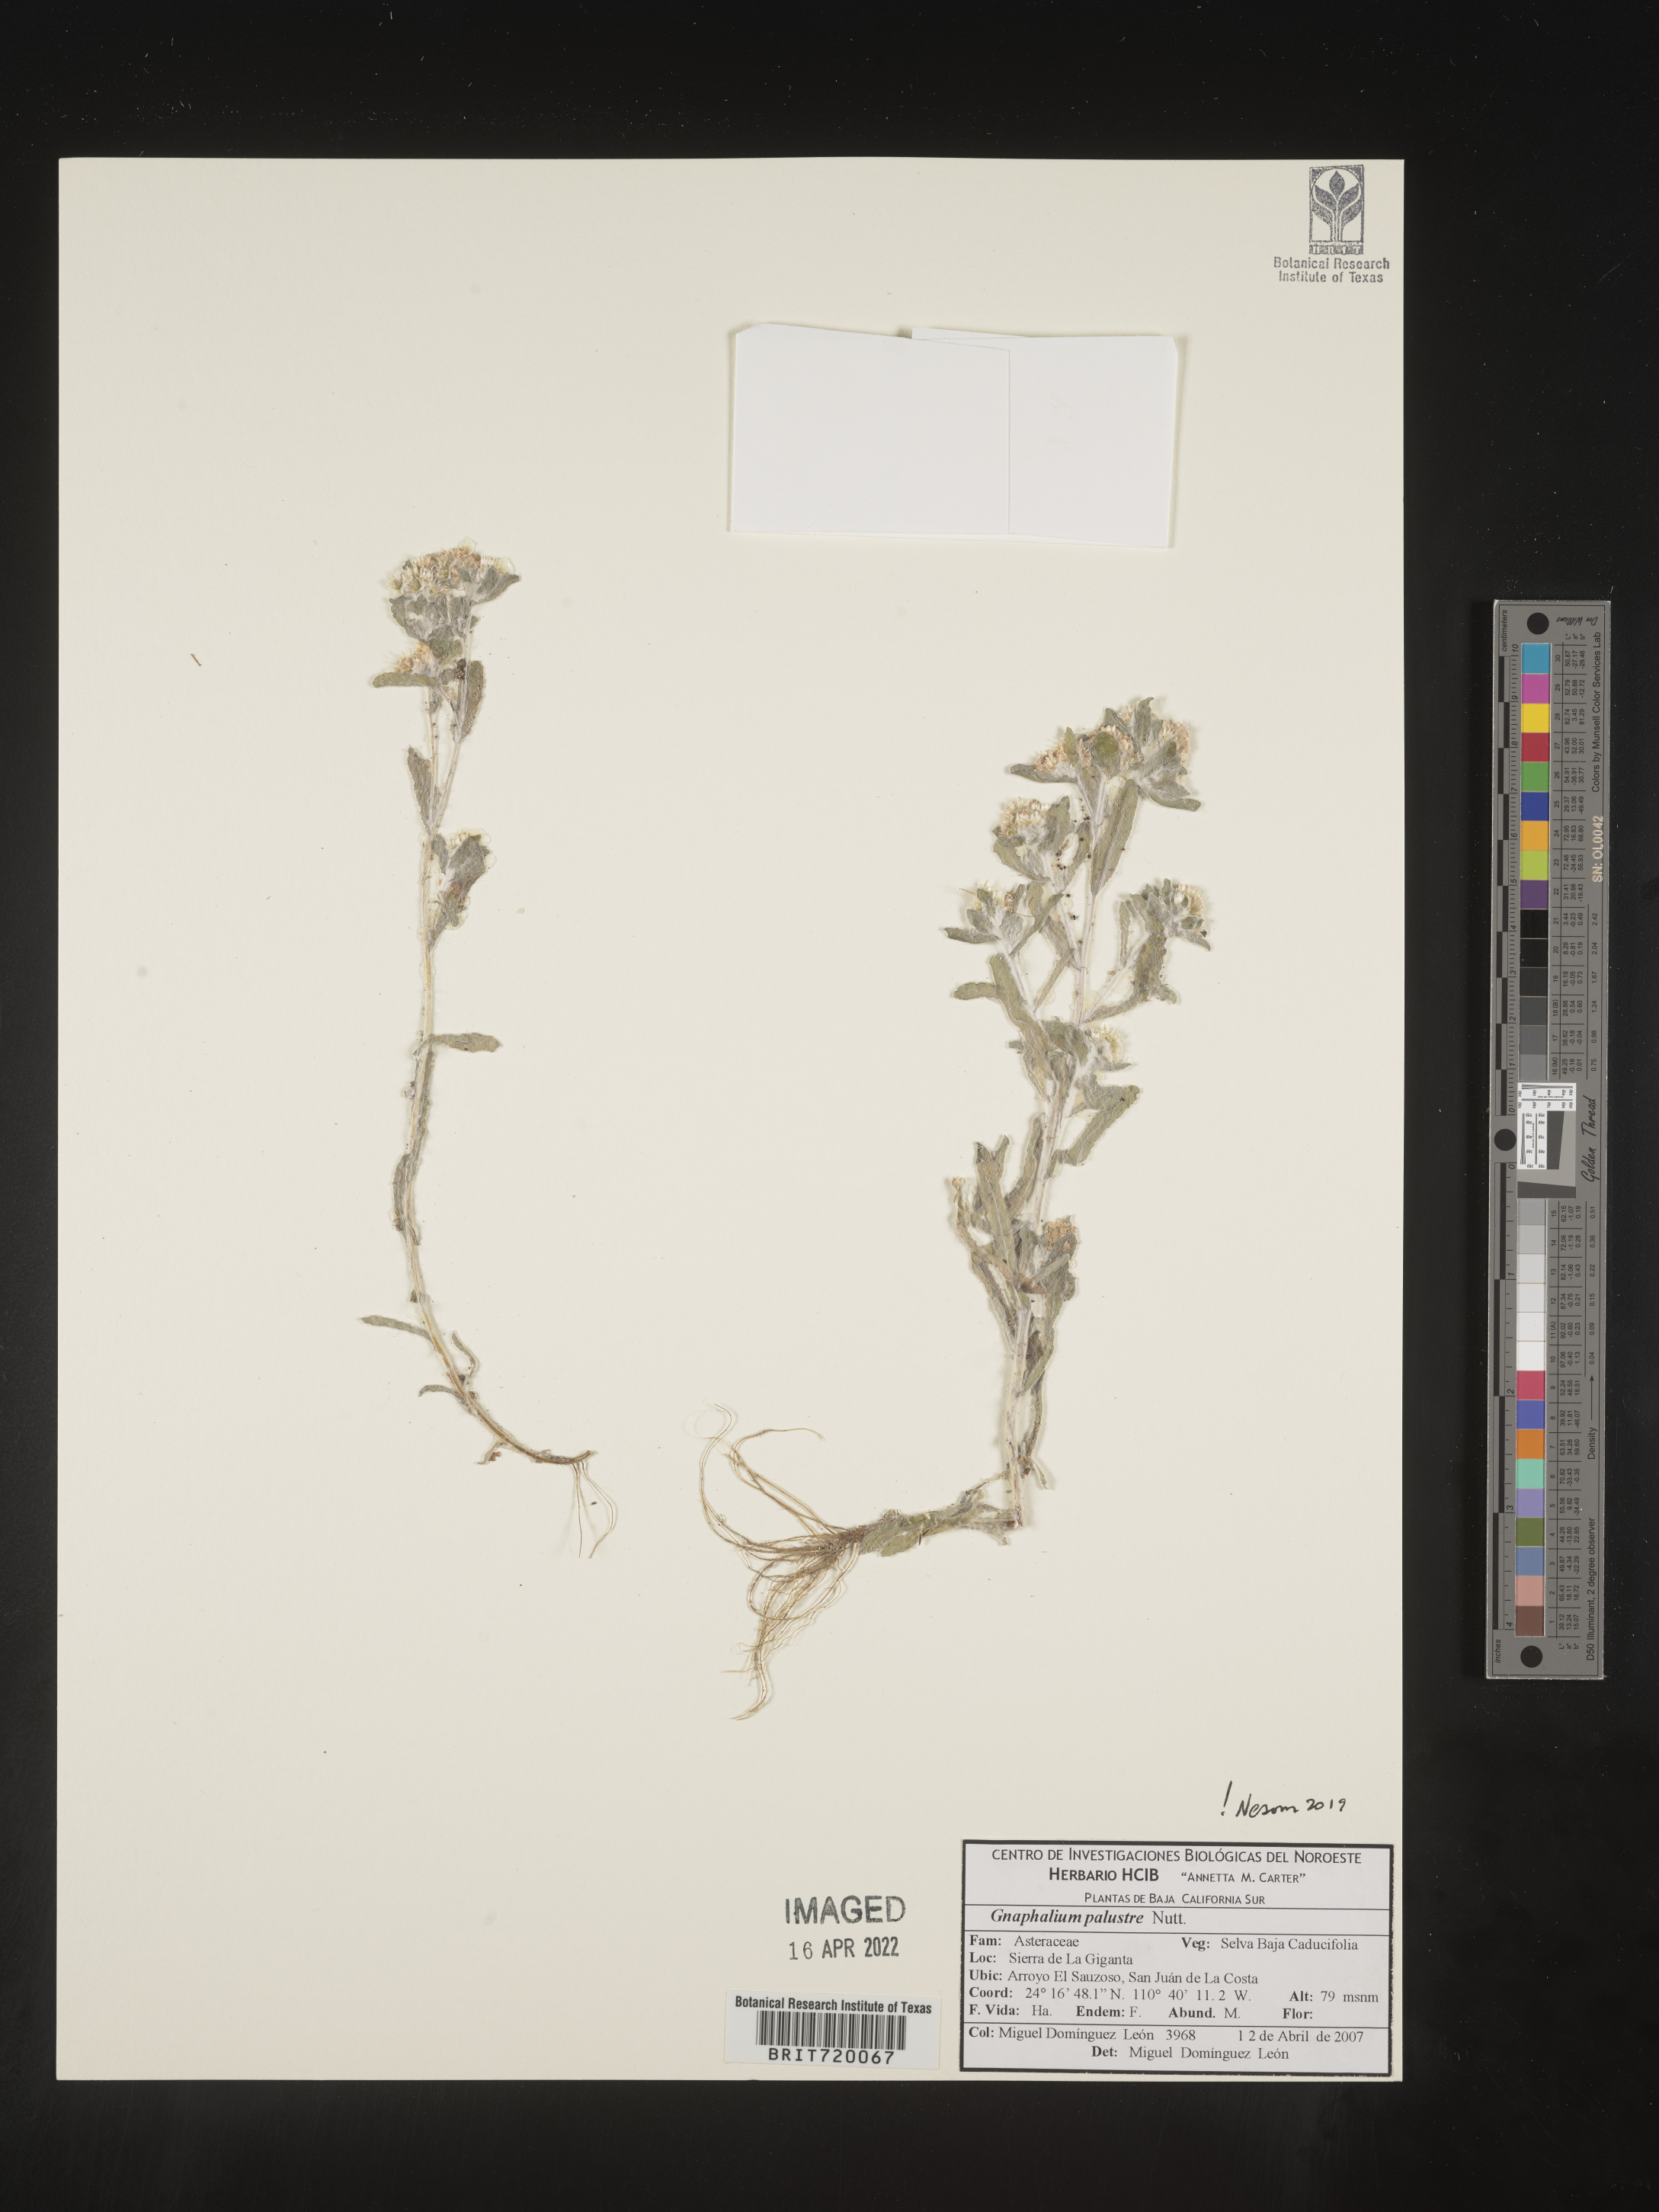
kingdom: Plantae
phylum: Tracheophyta
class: Magnoliopsida
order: Asterales
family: Asteraceae
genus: Gnaphalium
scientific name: Gnaphalium
